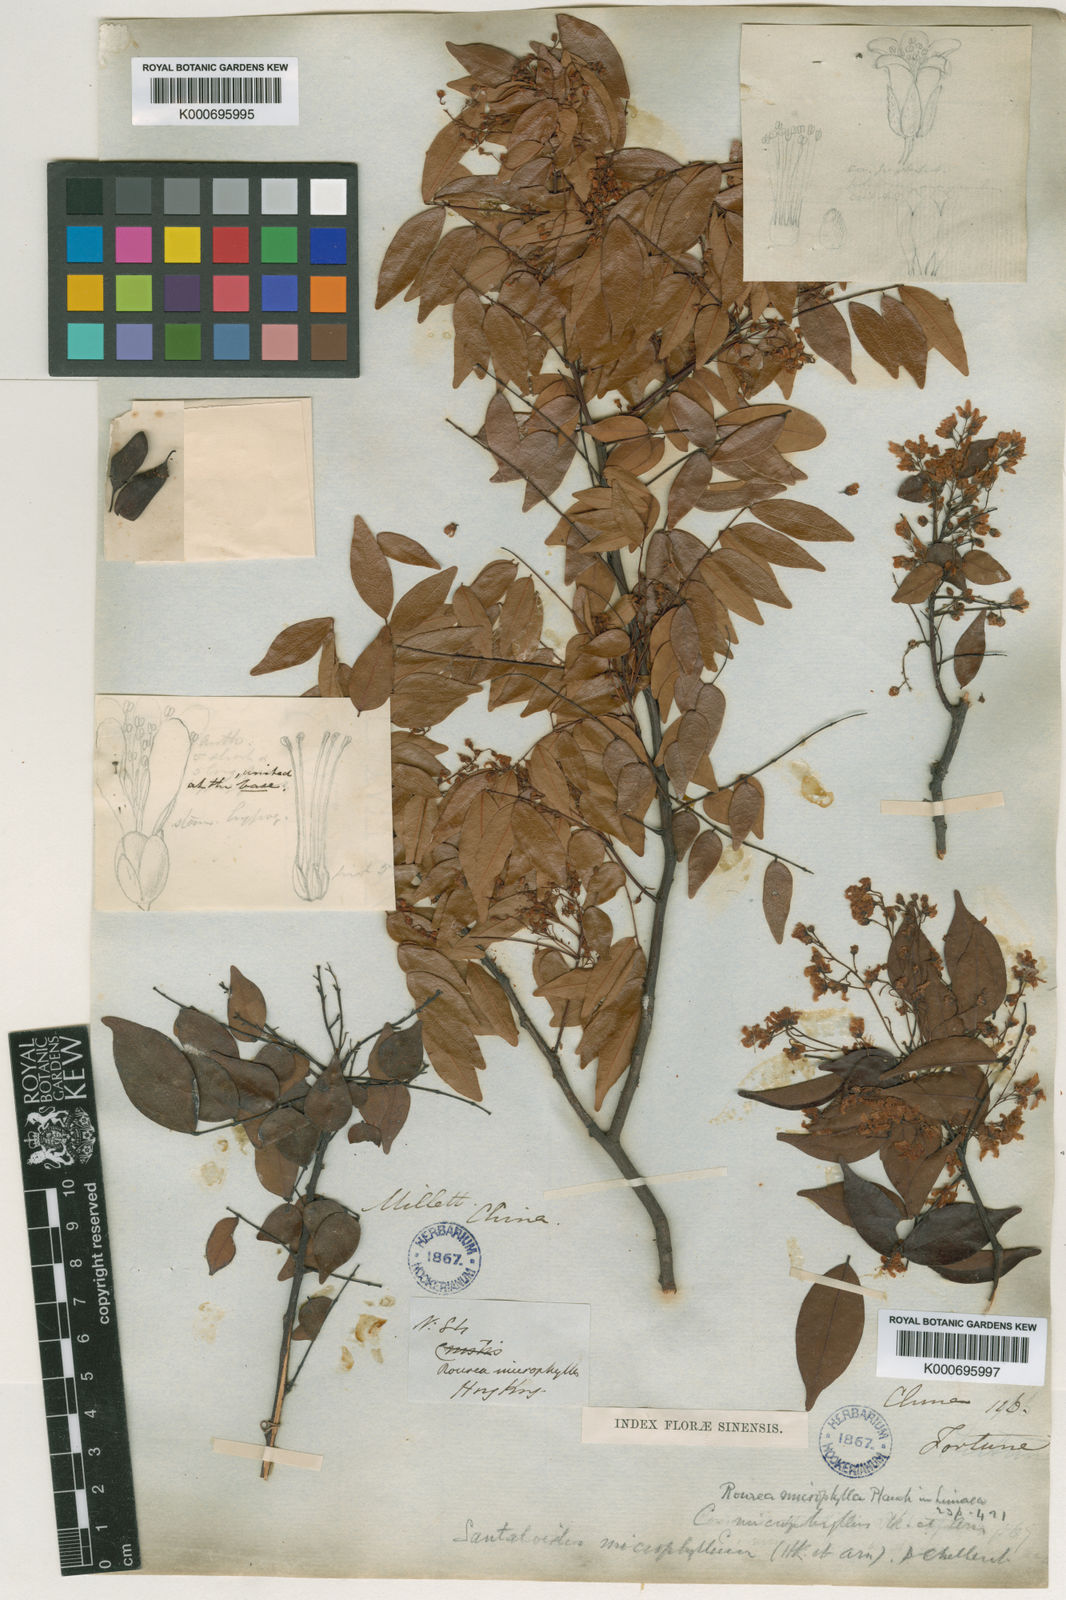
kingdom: Plantae
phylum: Tracheophyta
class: Magnoliopsida
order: Oxalidales
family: Connaraceae
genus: Rourea
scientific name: Rourea microphylla
